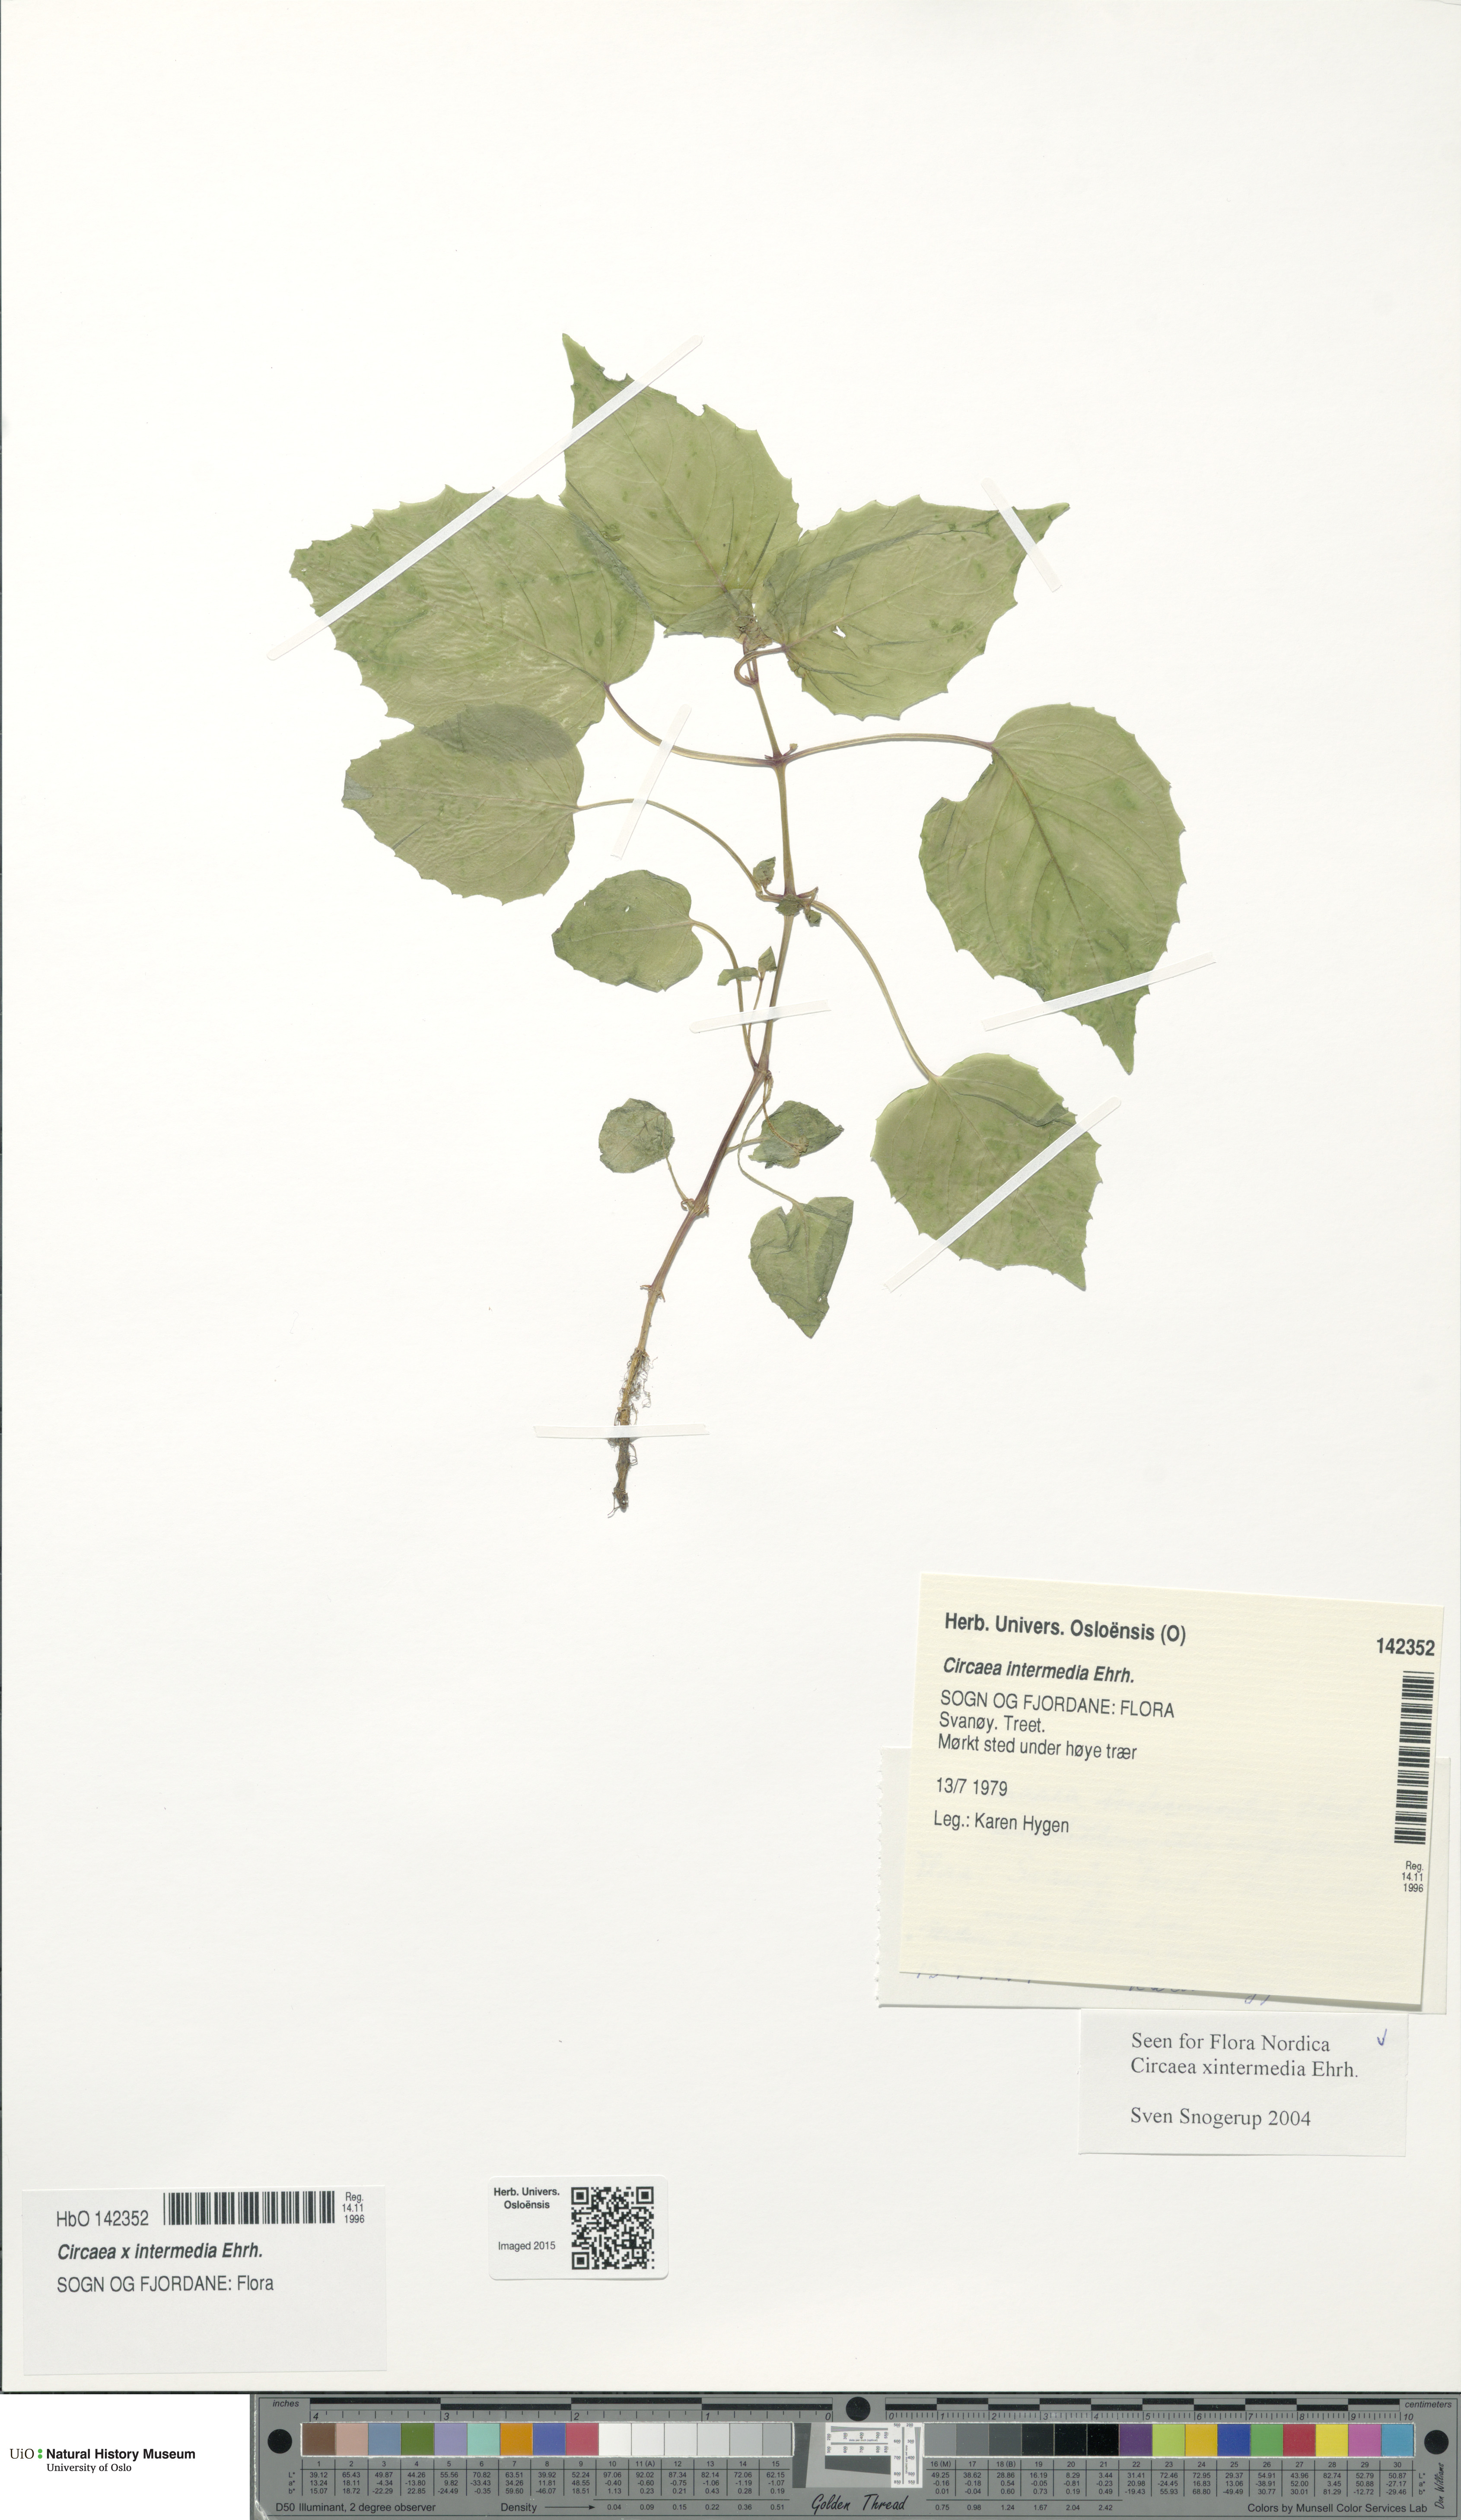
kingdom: Plantae
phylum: Tracheophyta
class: Magnoliopsida
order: Myrtales
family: Onagraceae
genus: Circaea
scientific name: Circaea intermedia
